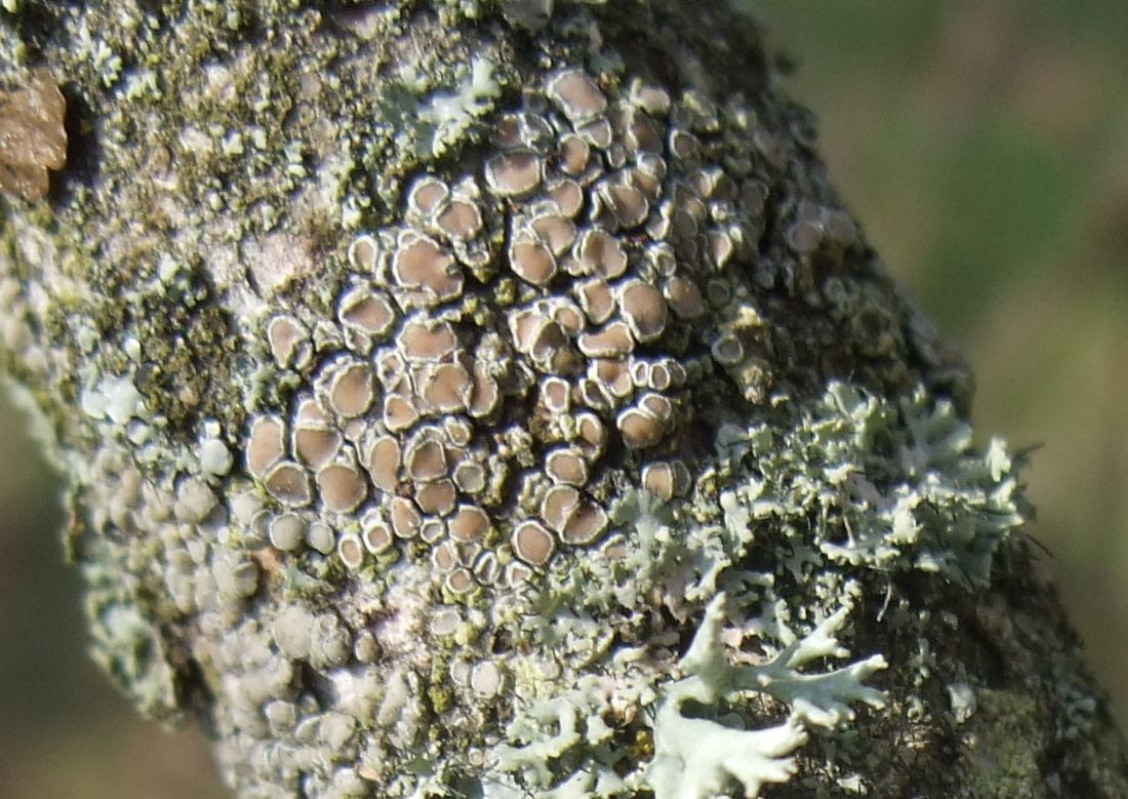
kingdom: Fungi
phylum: Ascomycota
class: Lecanoromycetes
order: Lecanorales
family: Lecanoraceae
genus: Lecanora
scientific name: Lecanora chlarotera
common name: brun kantskivelav
